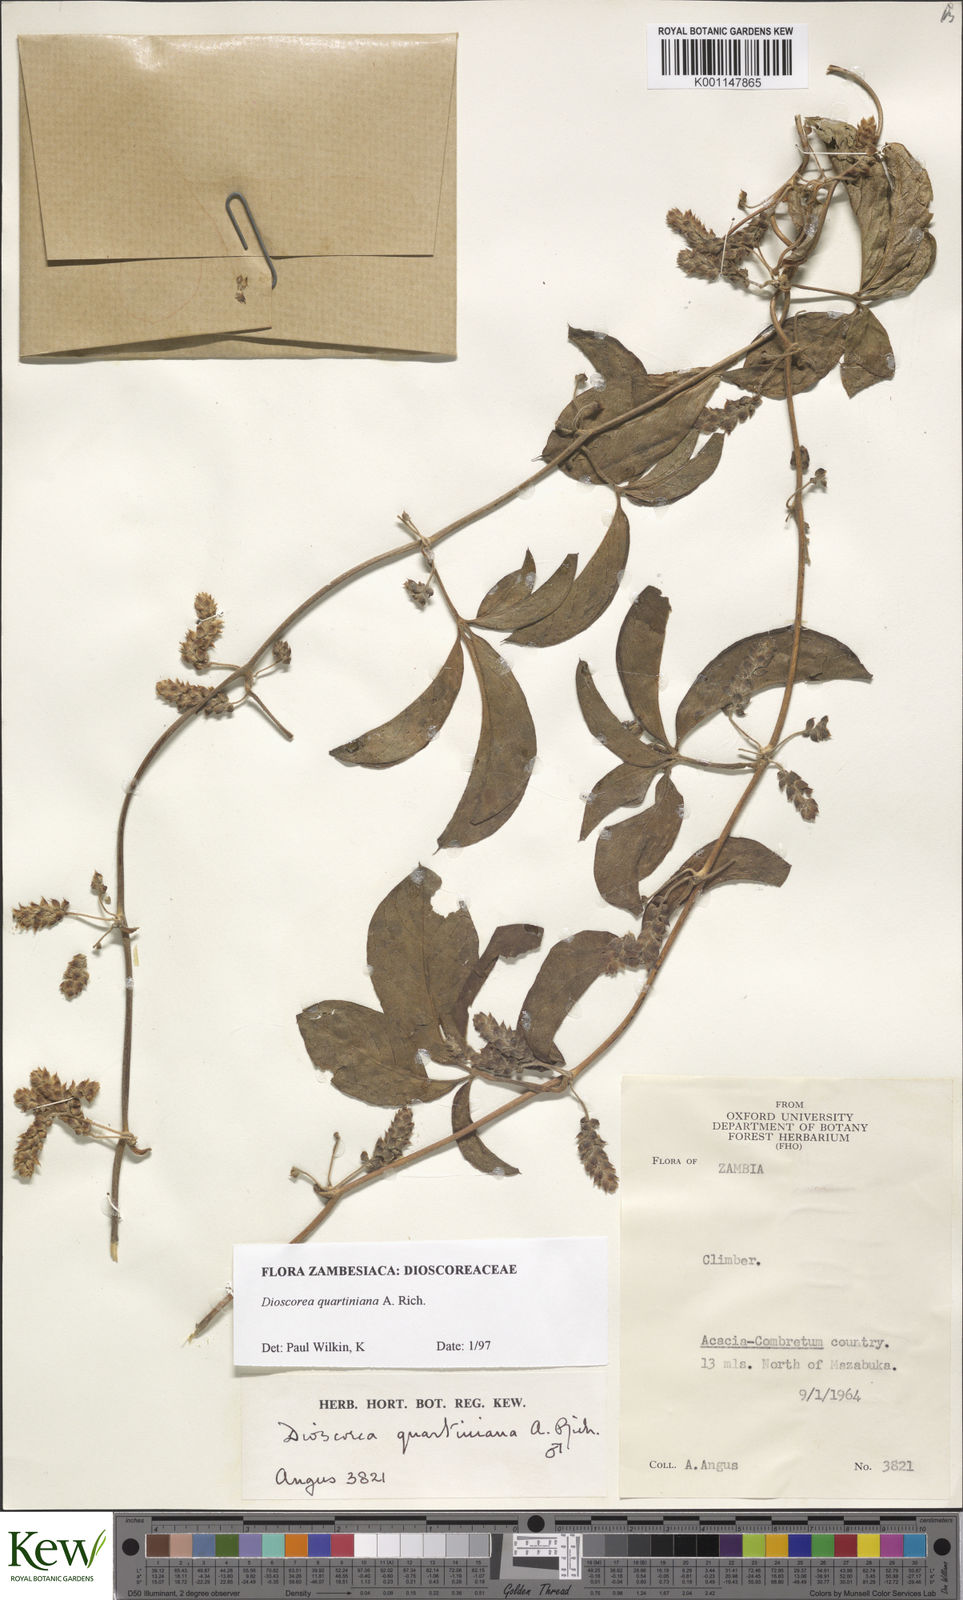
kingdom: Plantae
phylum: Tracheophyta
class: Liliopsida
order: Dioscoreales
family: Dioscoreaceae
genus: Dioscorea
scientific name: Dioscorea quartiniana
